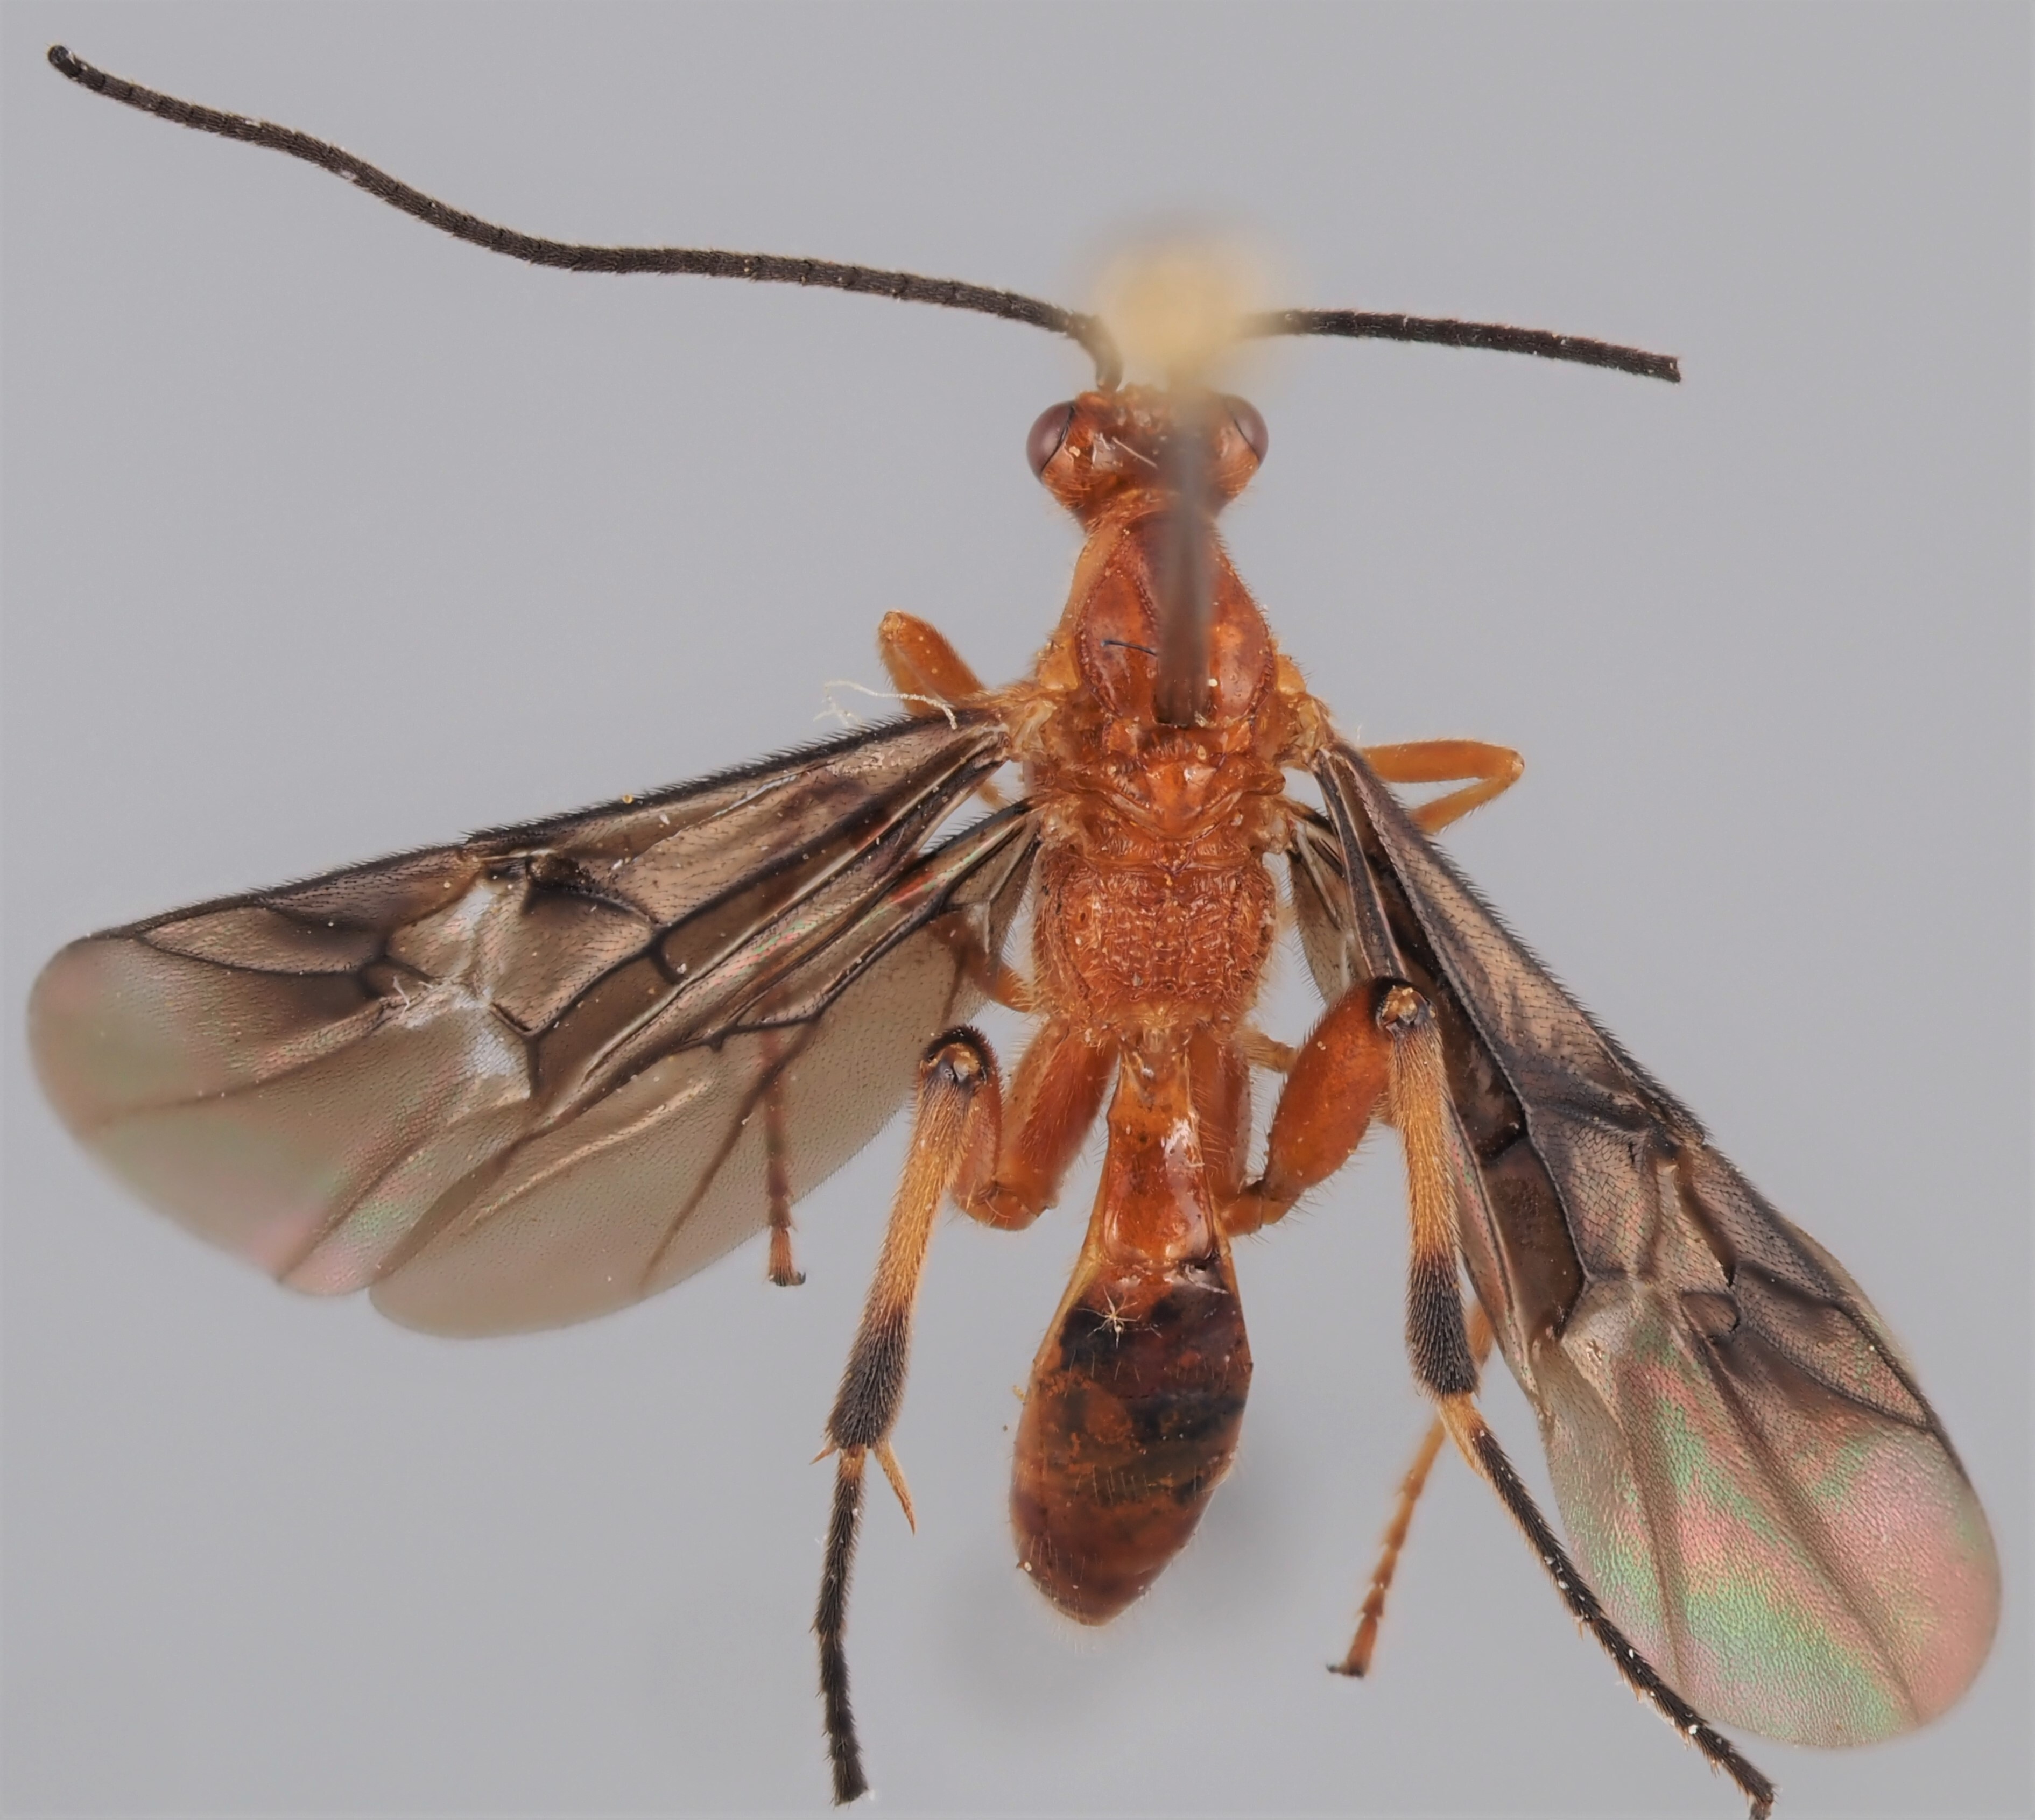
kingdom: Animalia
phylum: Arthropoda
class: Insecta
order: Hymenoptera
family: Braconidae
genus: Cremnops
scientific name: Cremnops desertor
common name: Braconid wasp
